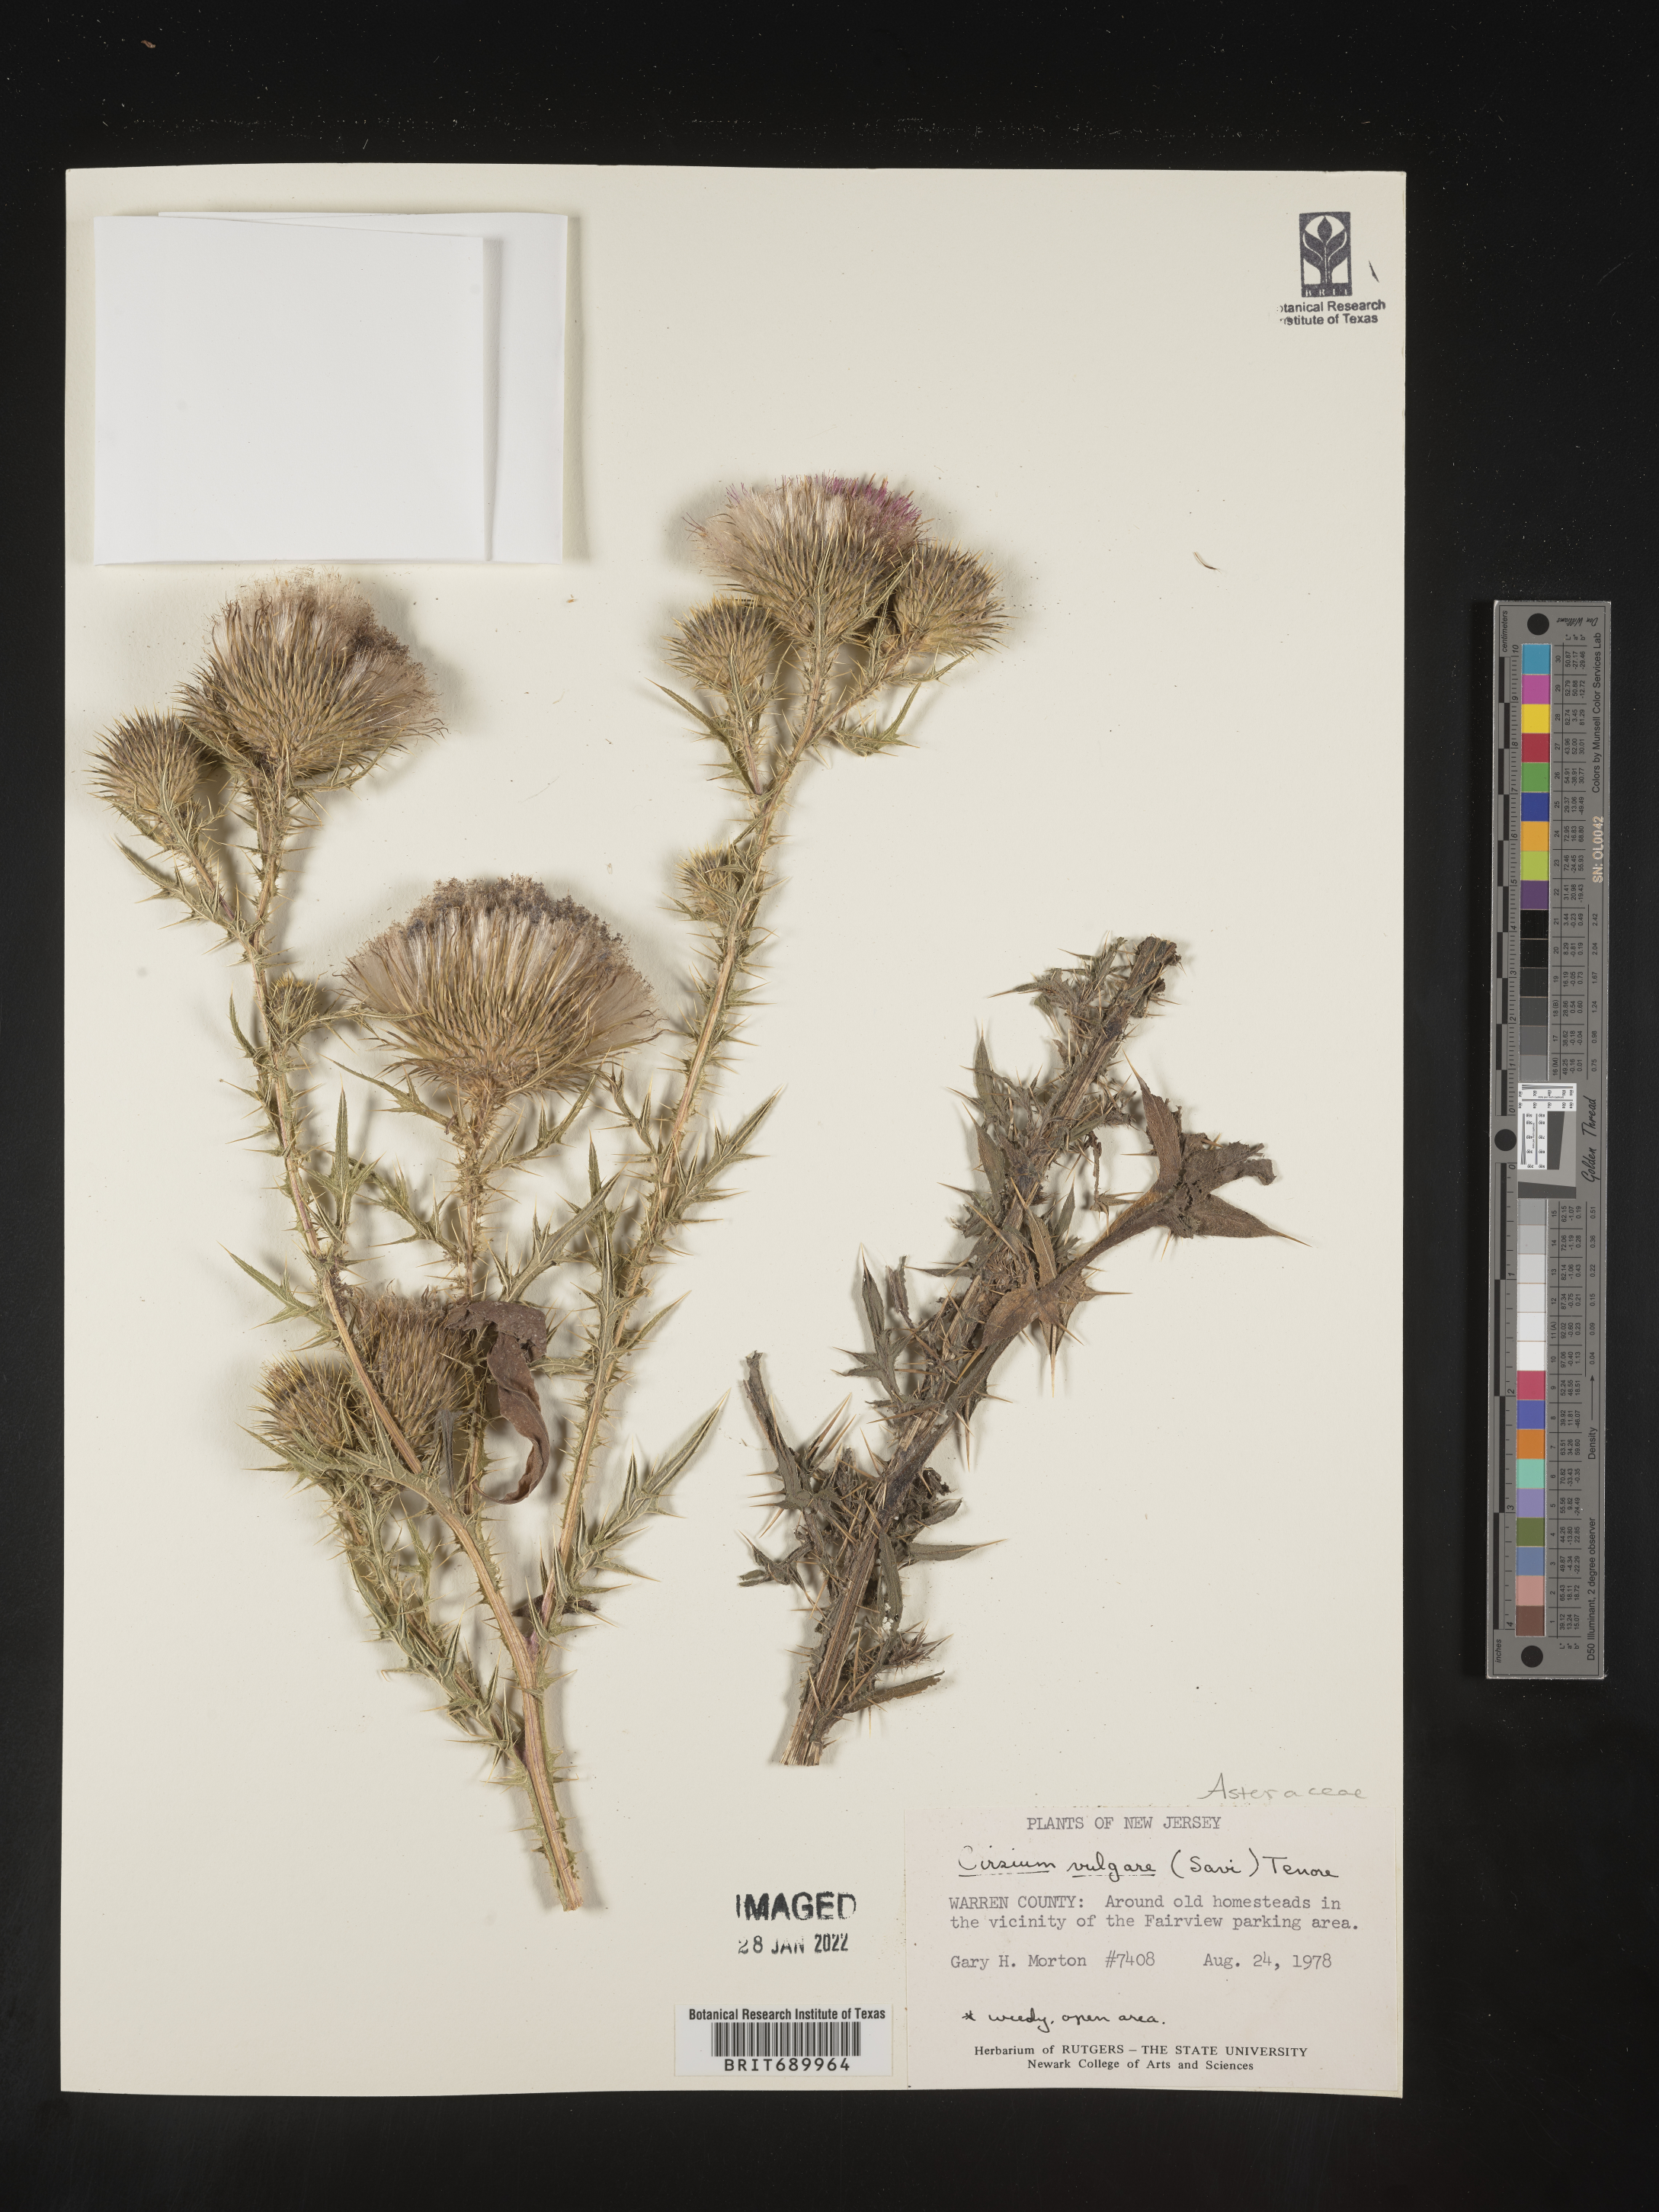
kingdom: Plantae
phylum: Tracheophyta
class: Magnoliopsida
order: Asterales
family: Asteraceae
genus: Cirsium
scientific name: Cirsium vulgare
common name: Bull thistle
